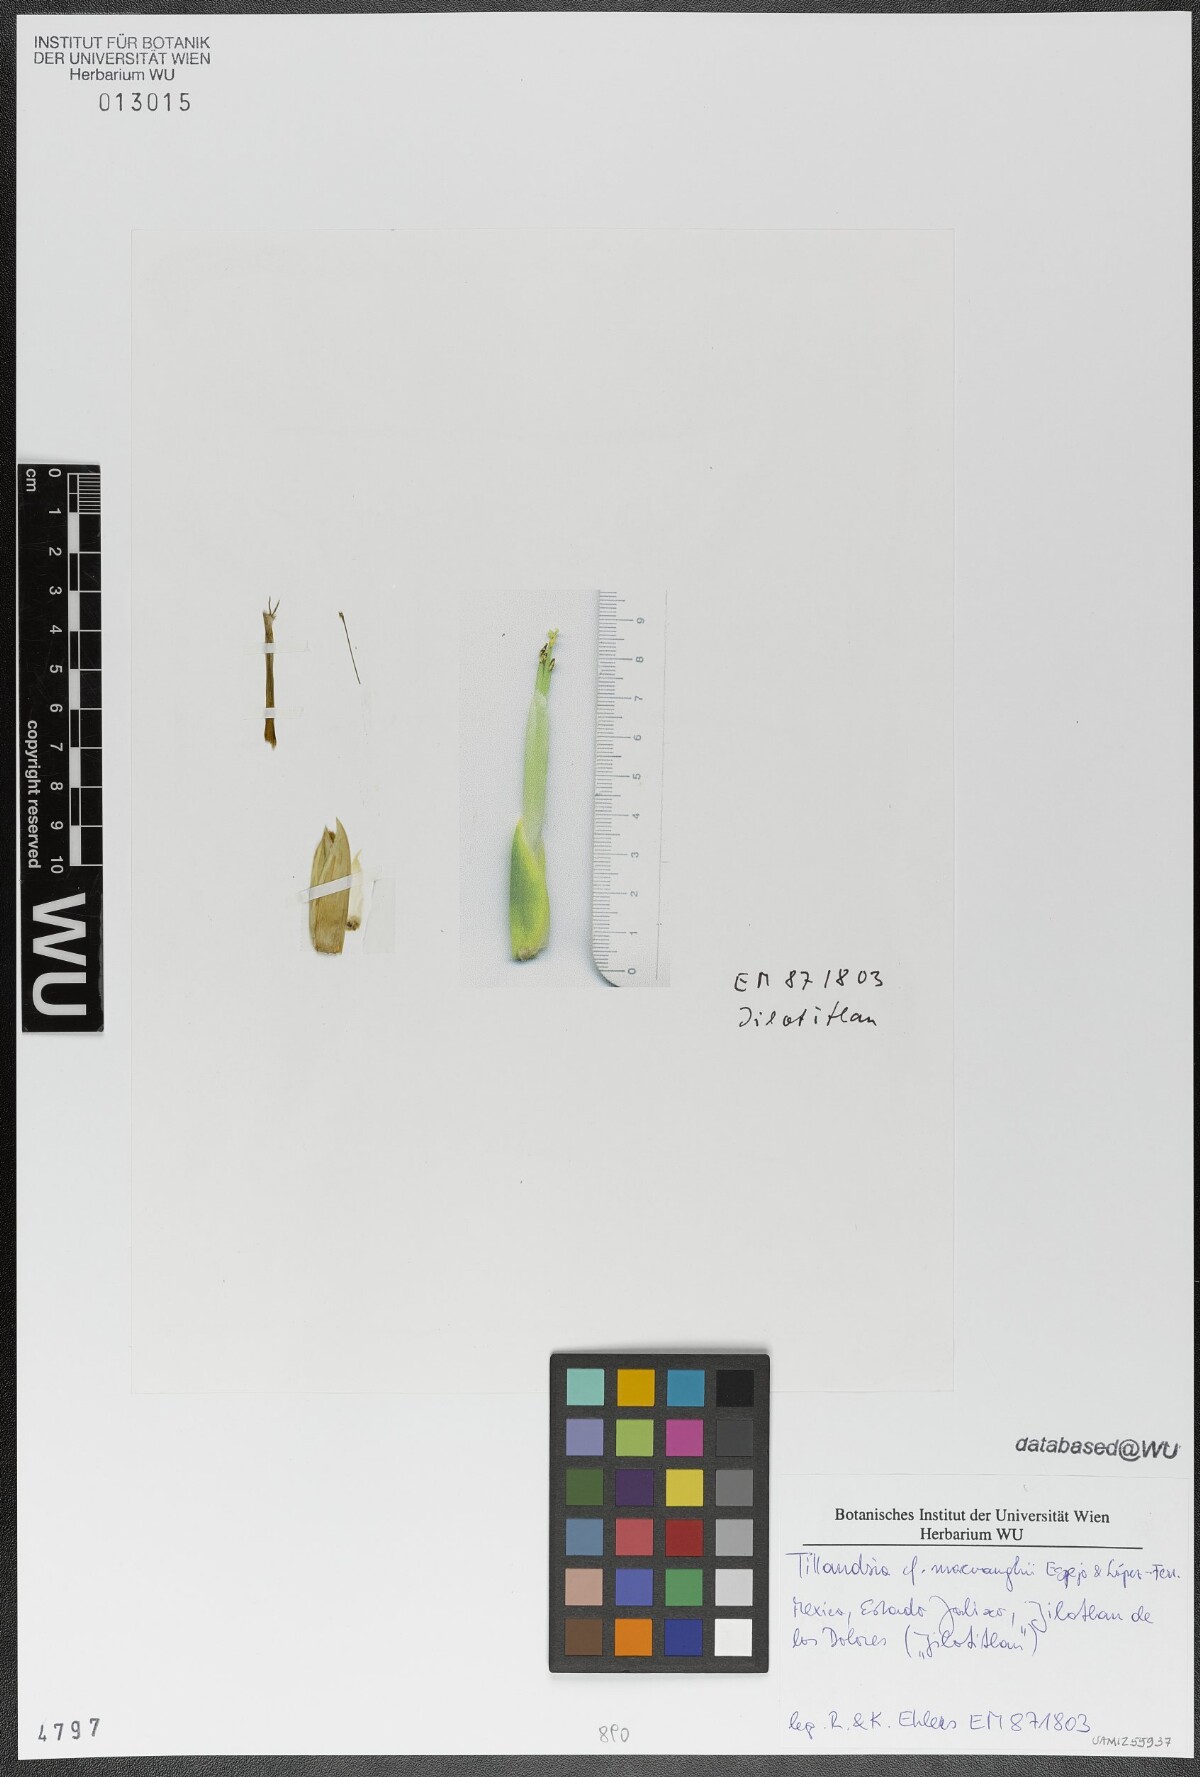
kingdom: Plantae
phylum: Tracheophyta
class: Liliopsida
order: Poales
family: Bromeliaceae
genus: Tillandsia
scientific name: Tillandsia macvaughii
